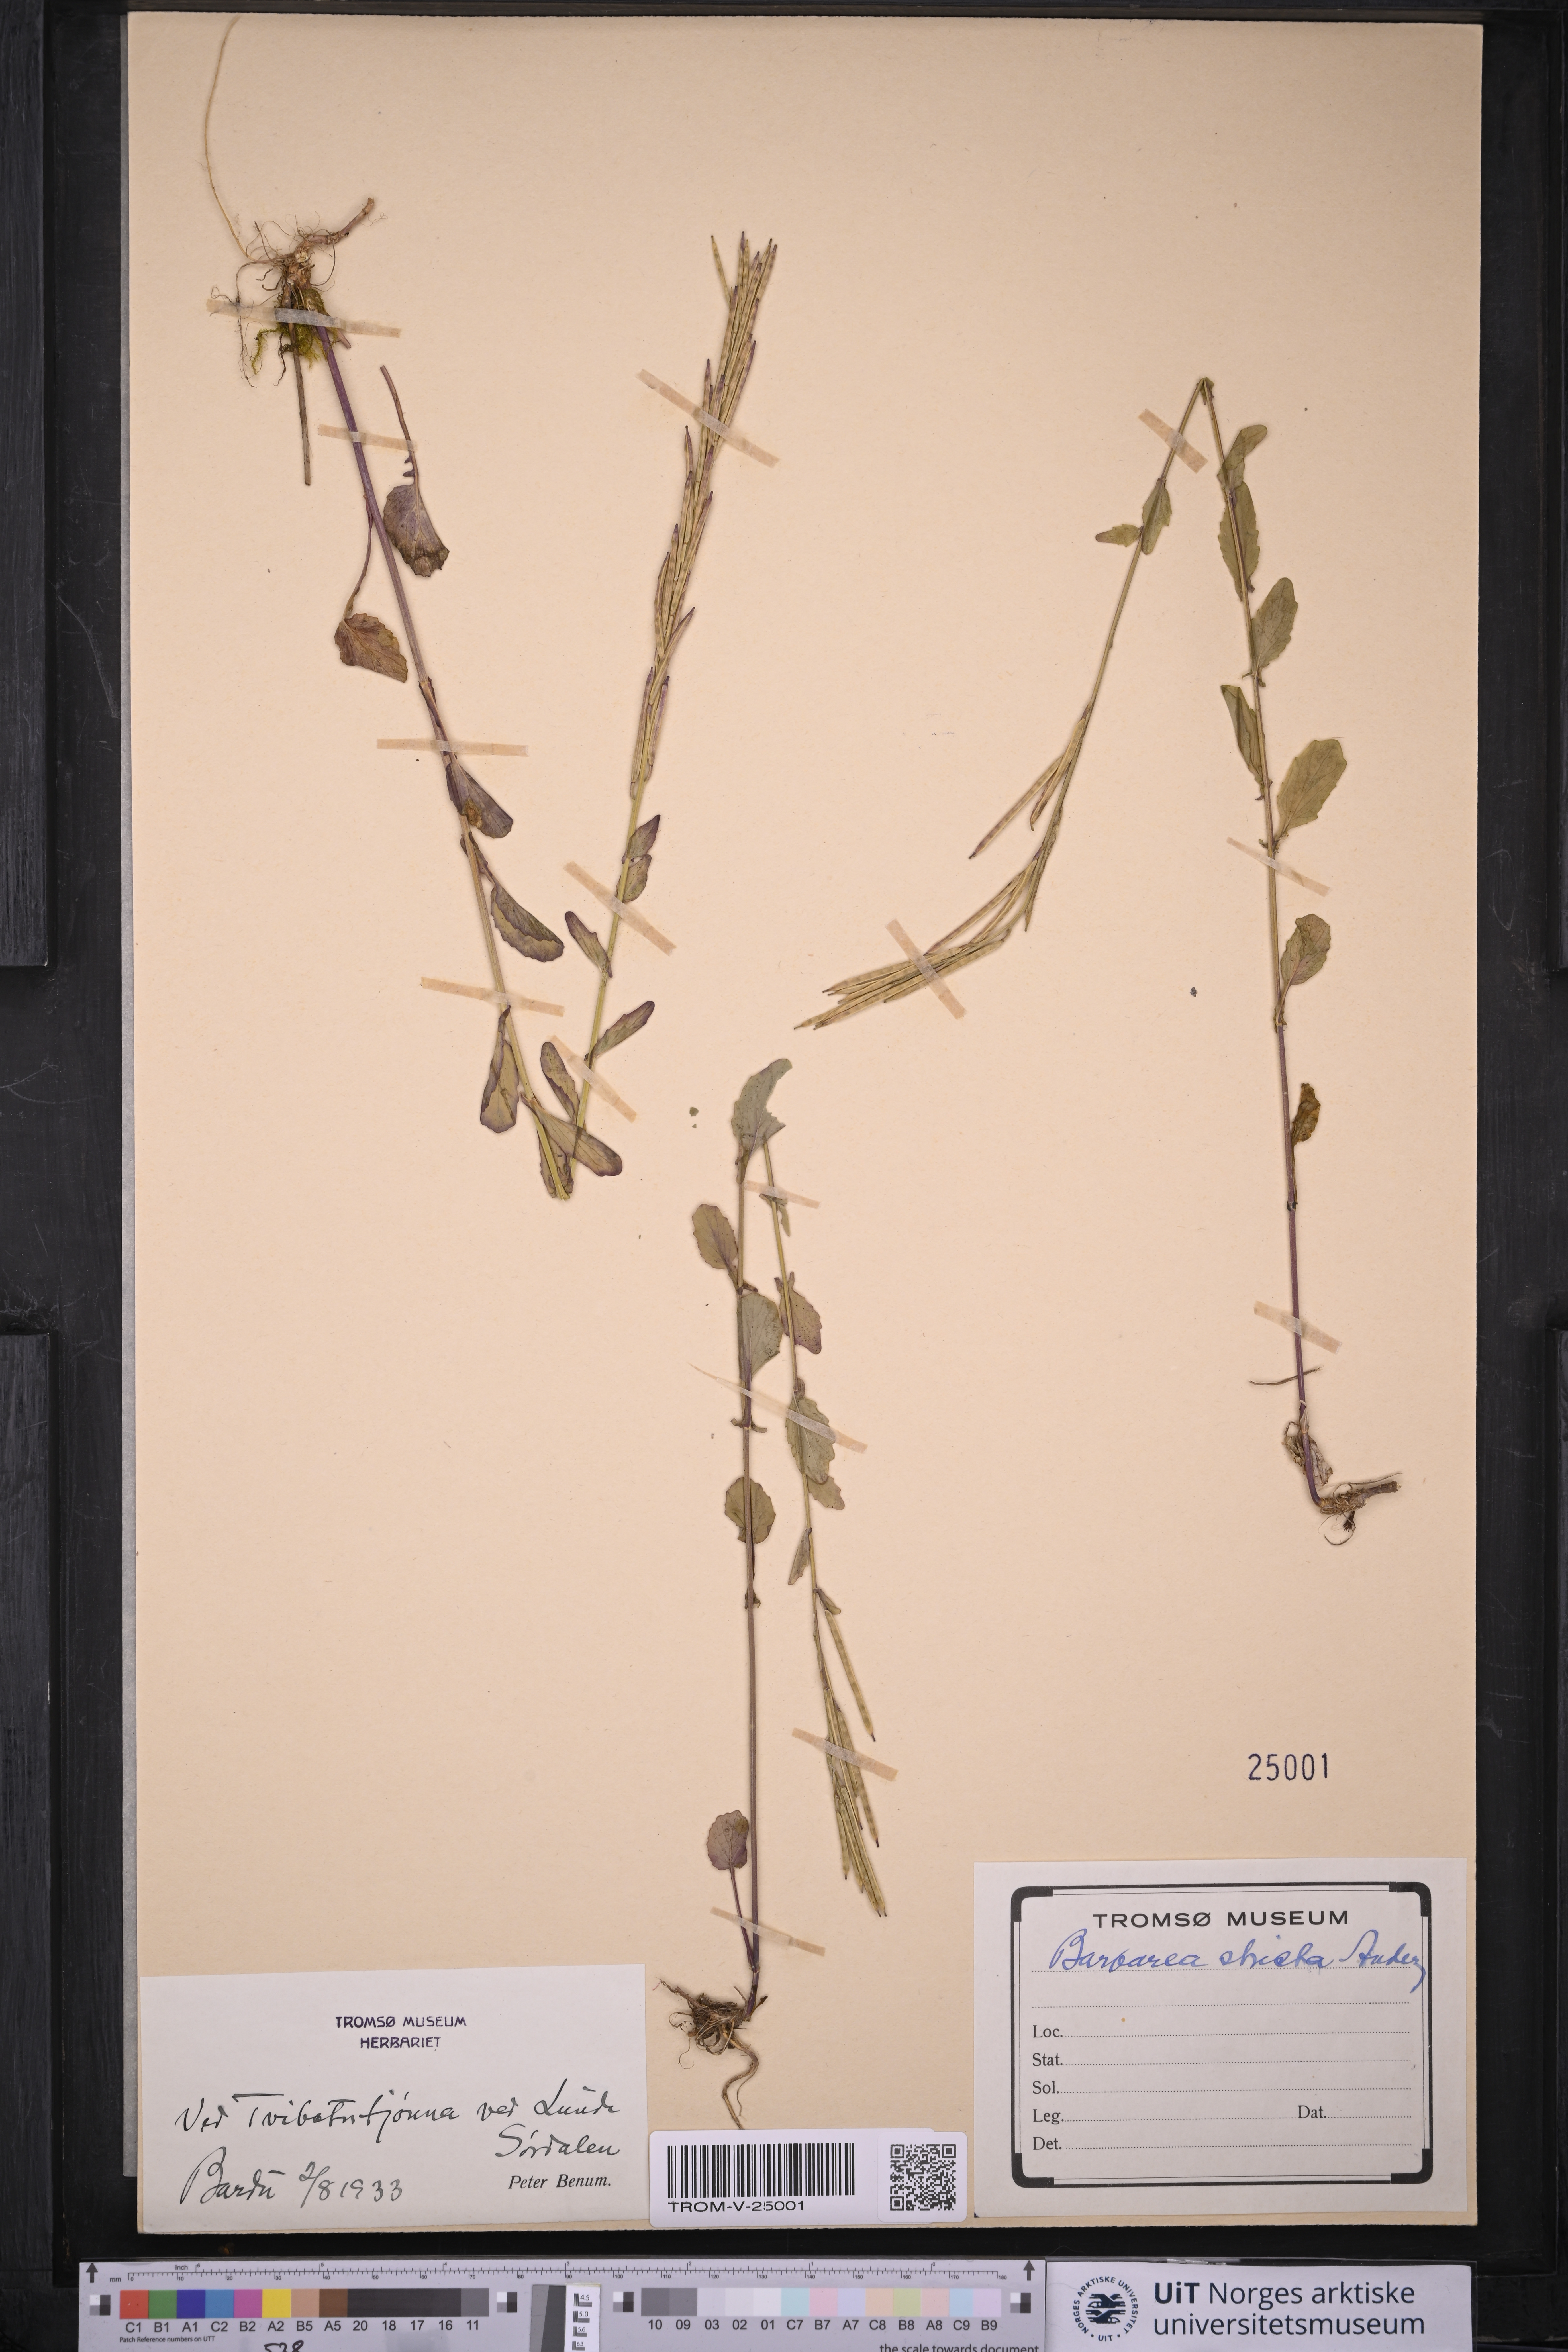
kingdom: Plantae
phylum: Tracheophyta
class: Magnoliopsida
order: Brassicales
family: Brassicaceae
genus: Barbarea
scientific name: Barbarea stricta
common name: Small-flowered winter-cress
